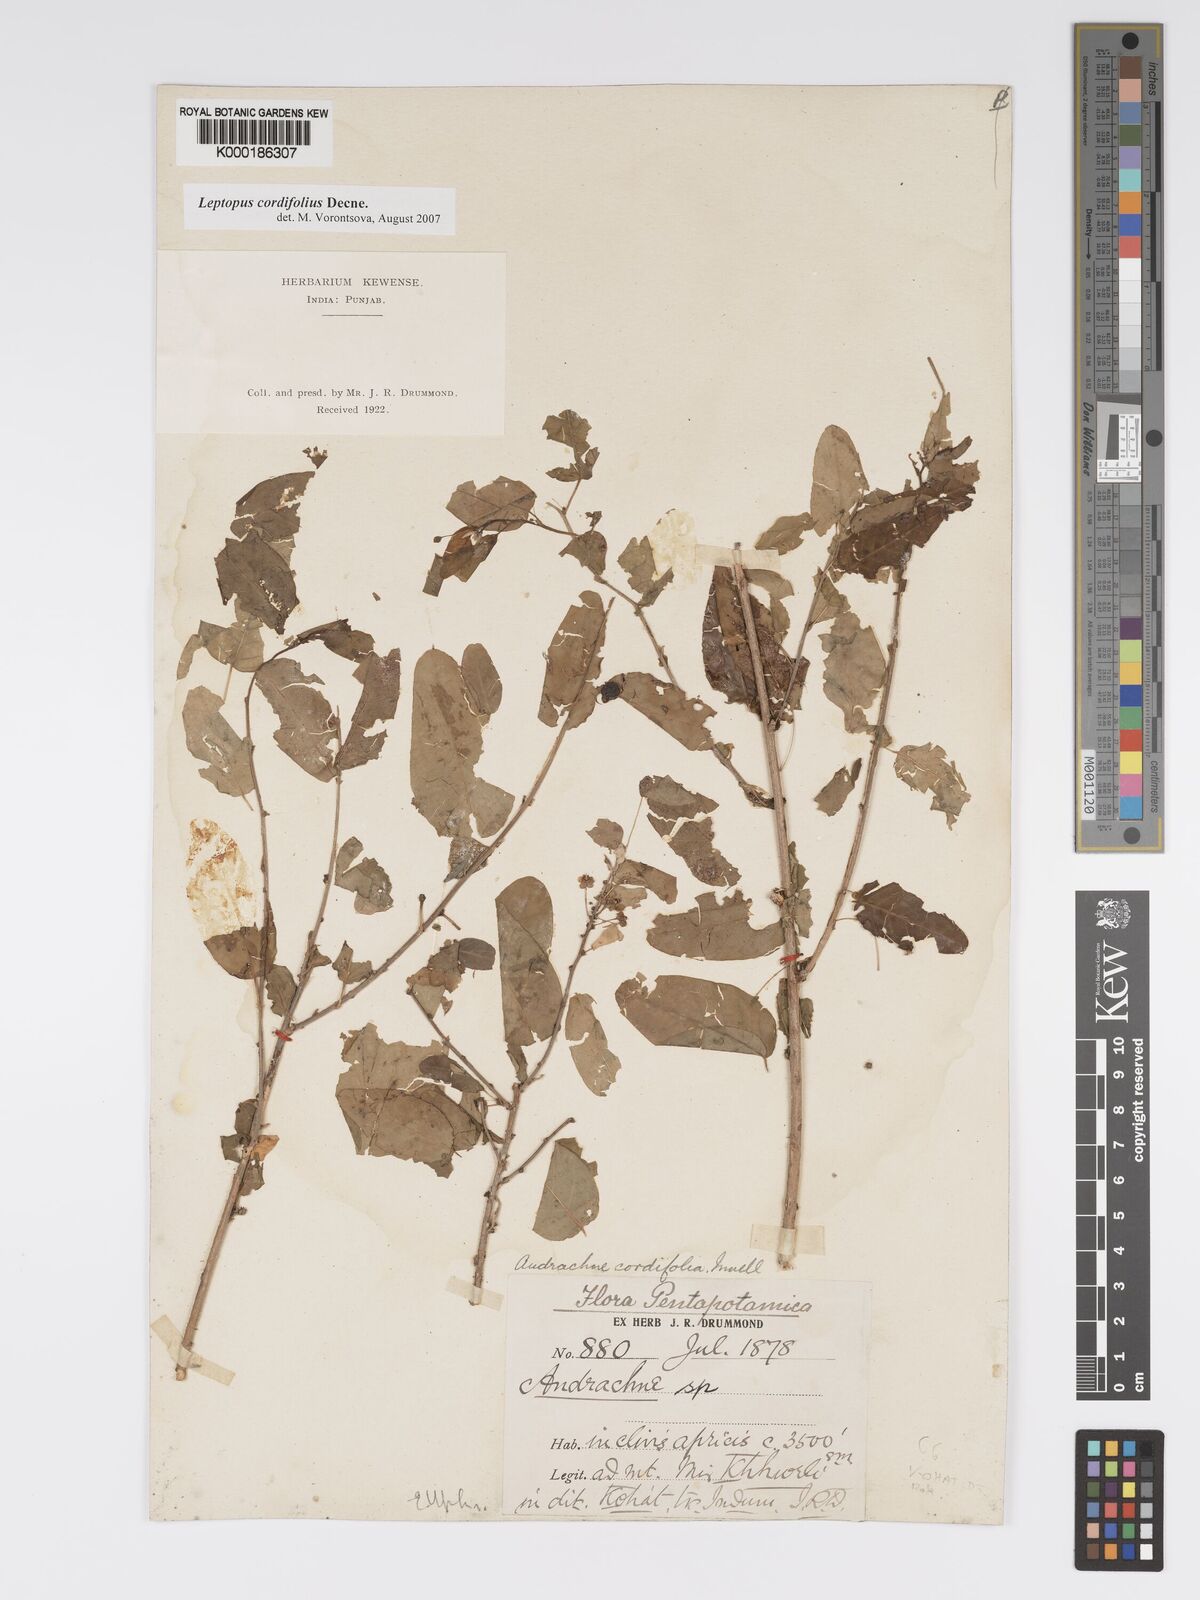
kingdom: Plantae
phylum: Tracheophyta
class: Magnoliopsida
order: Malpighiales
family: Phyllanthaceae
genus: Leptopus
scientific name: Leptopus cordifolius
